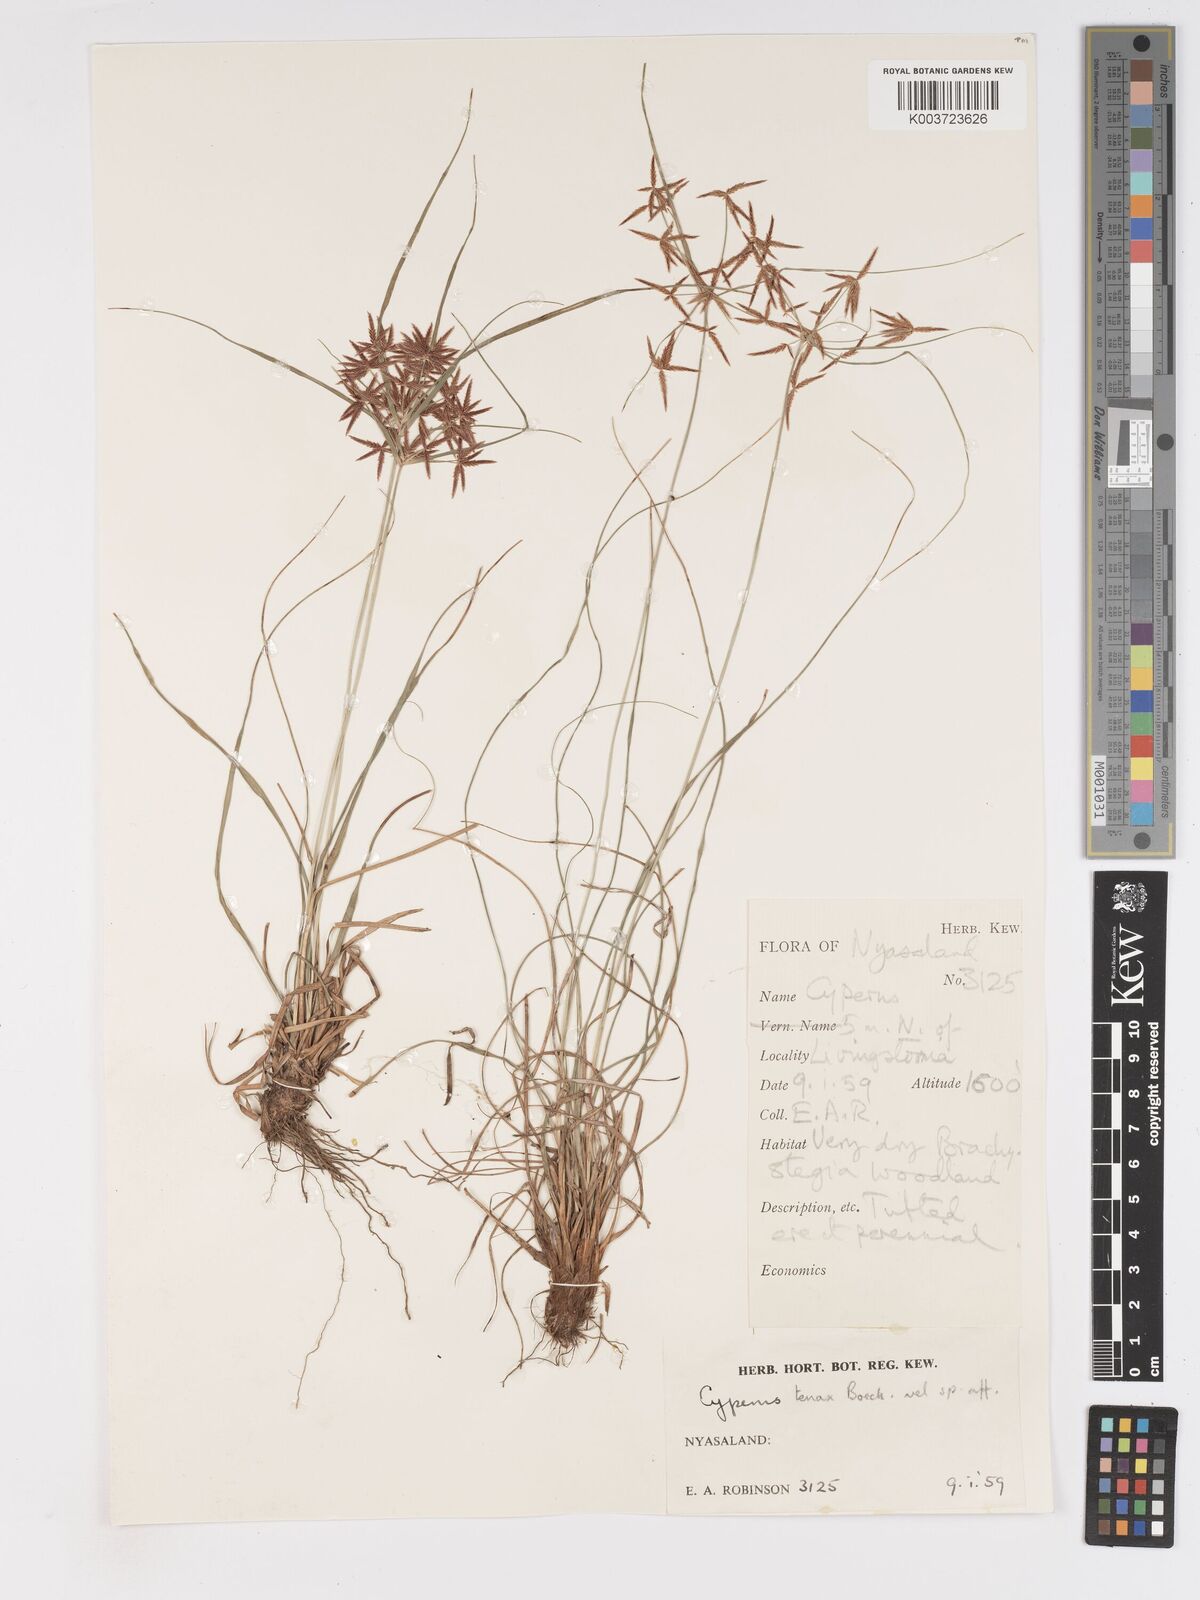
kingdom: Plantae
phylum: Tracheophyta
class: Liliopsida
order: Poales
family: Cyperaceae
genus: Cyperus
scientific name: Cyperus tenax
